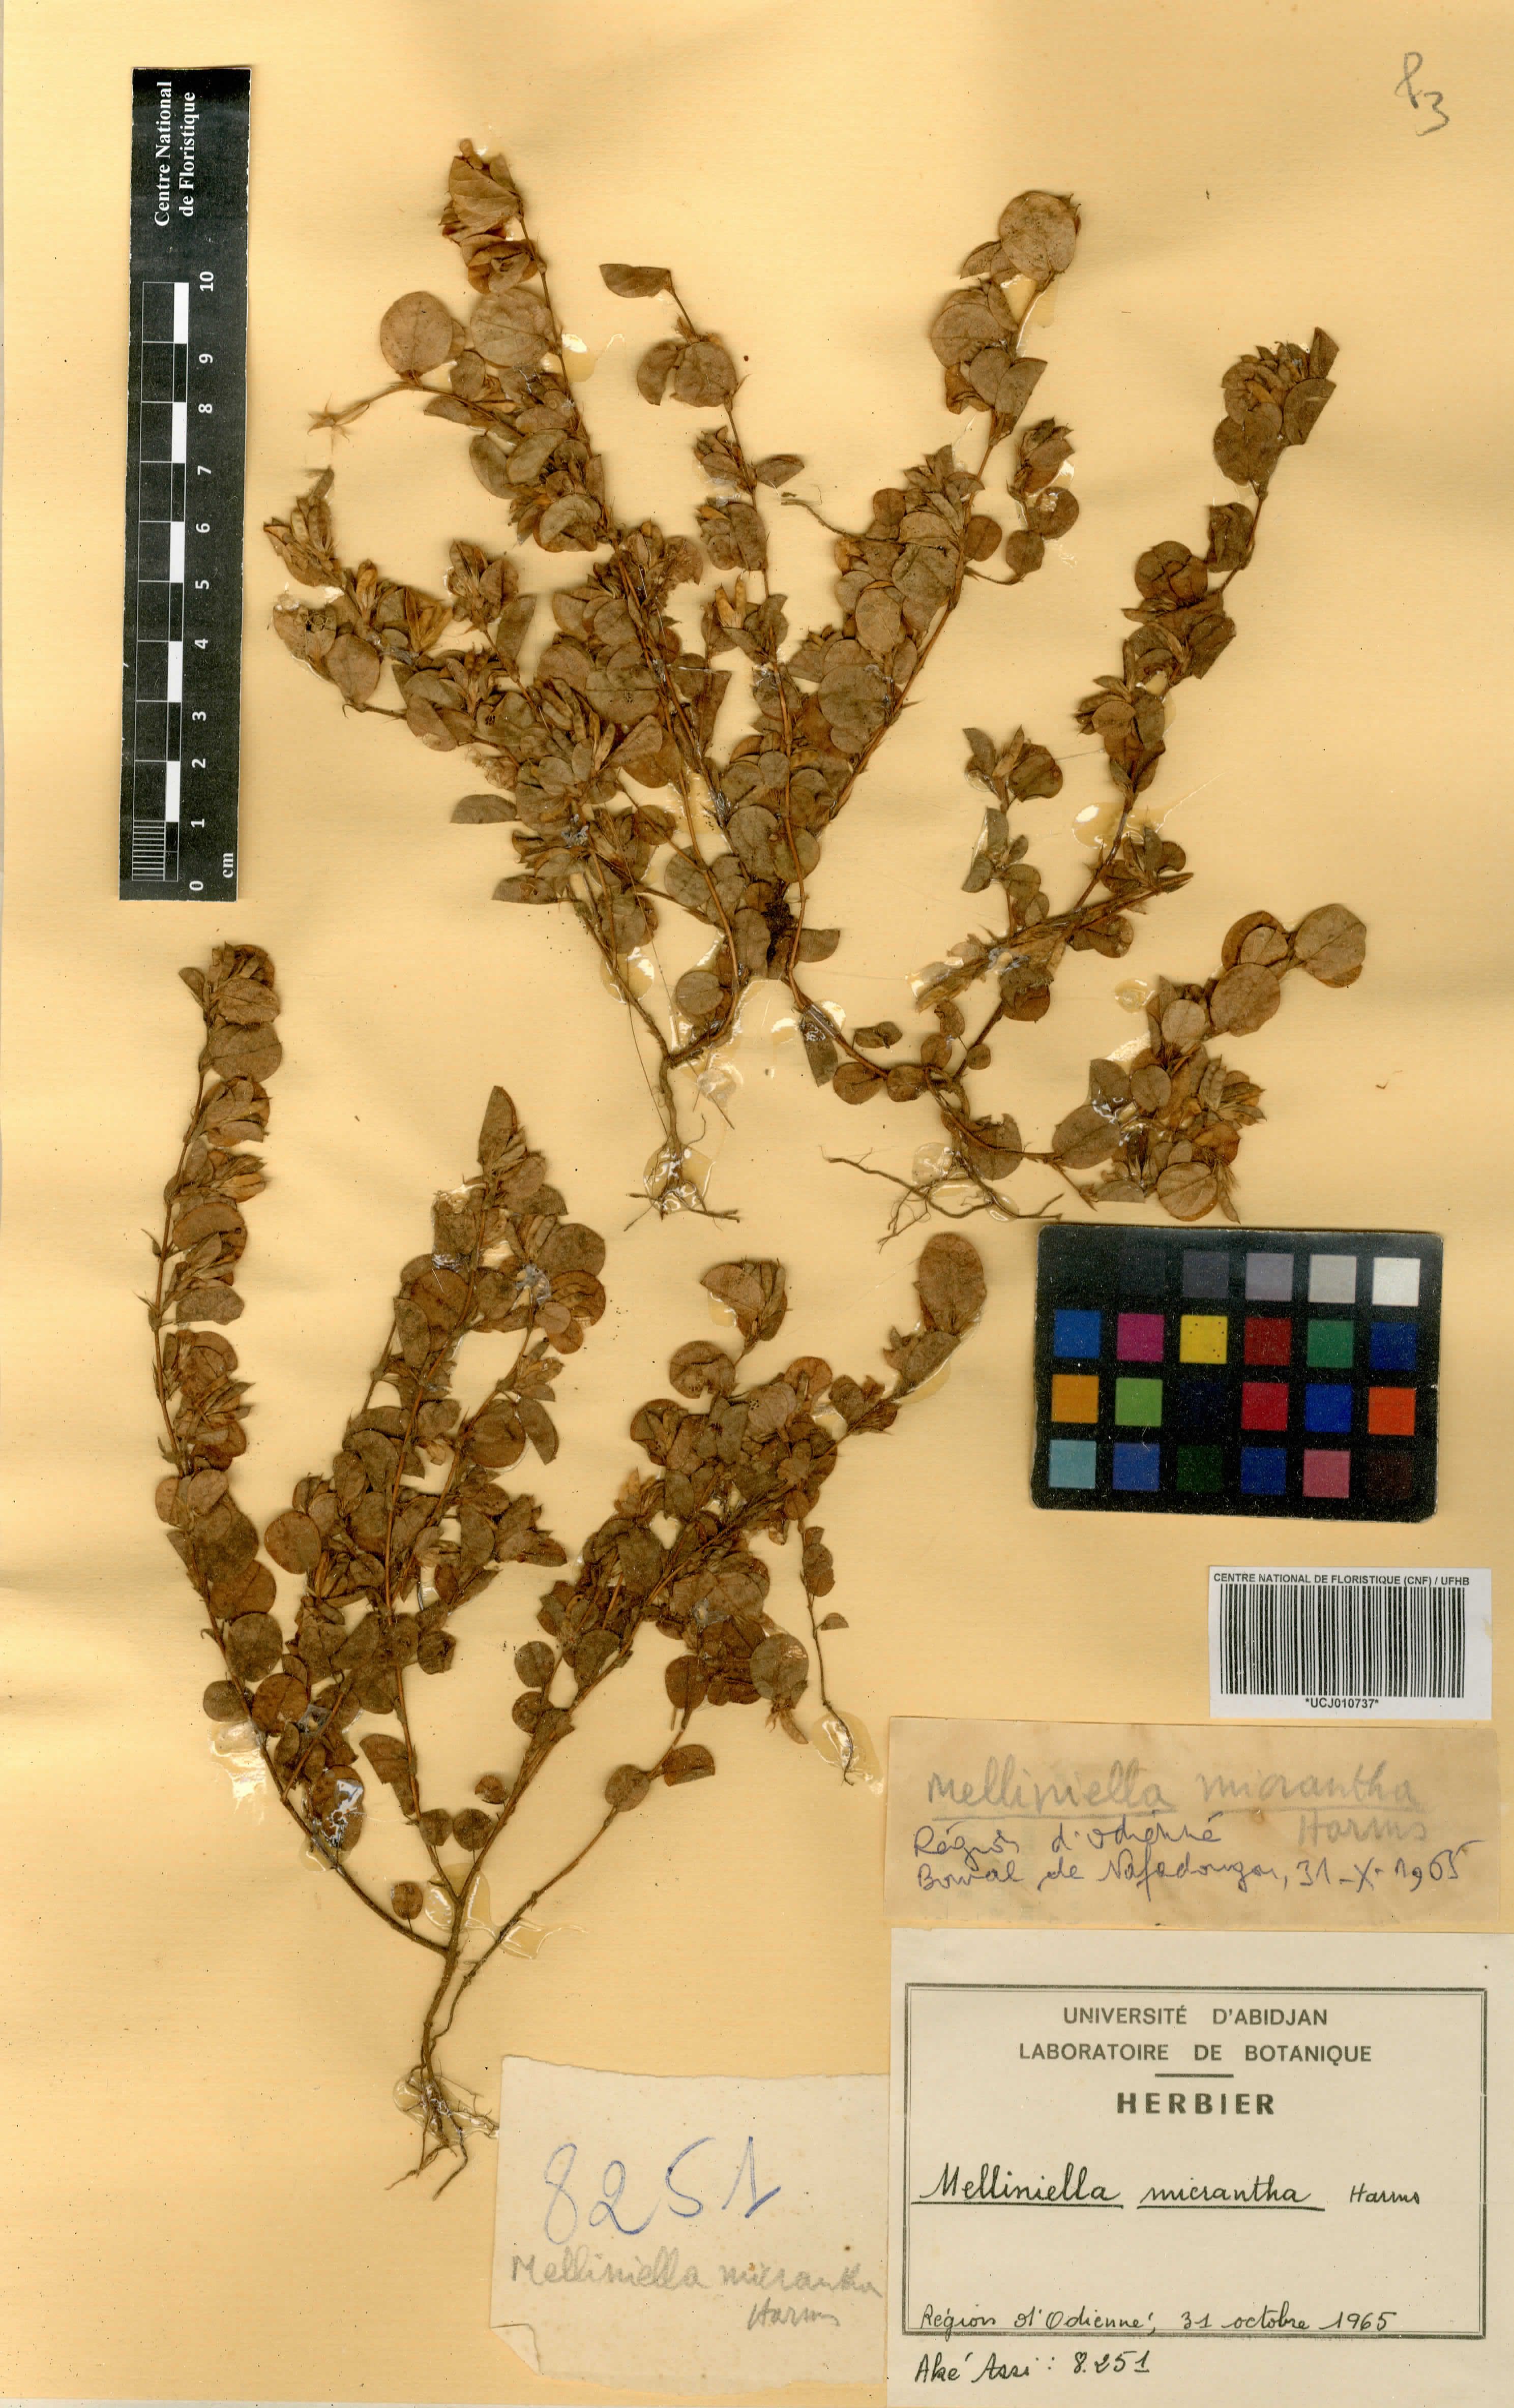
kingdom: Plantae
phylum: Tracheophyta
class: Magnoliopsida
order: Fabales
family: Fabaceae
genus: Melliniella
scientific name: Melliniella micrantha
